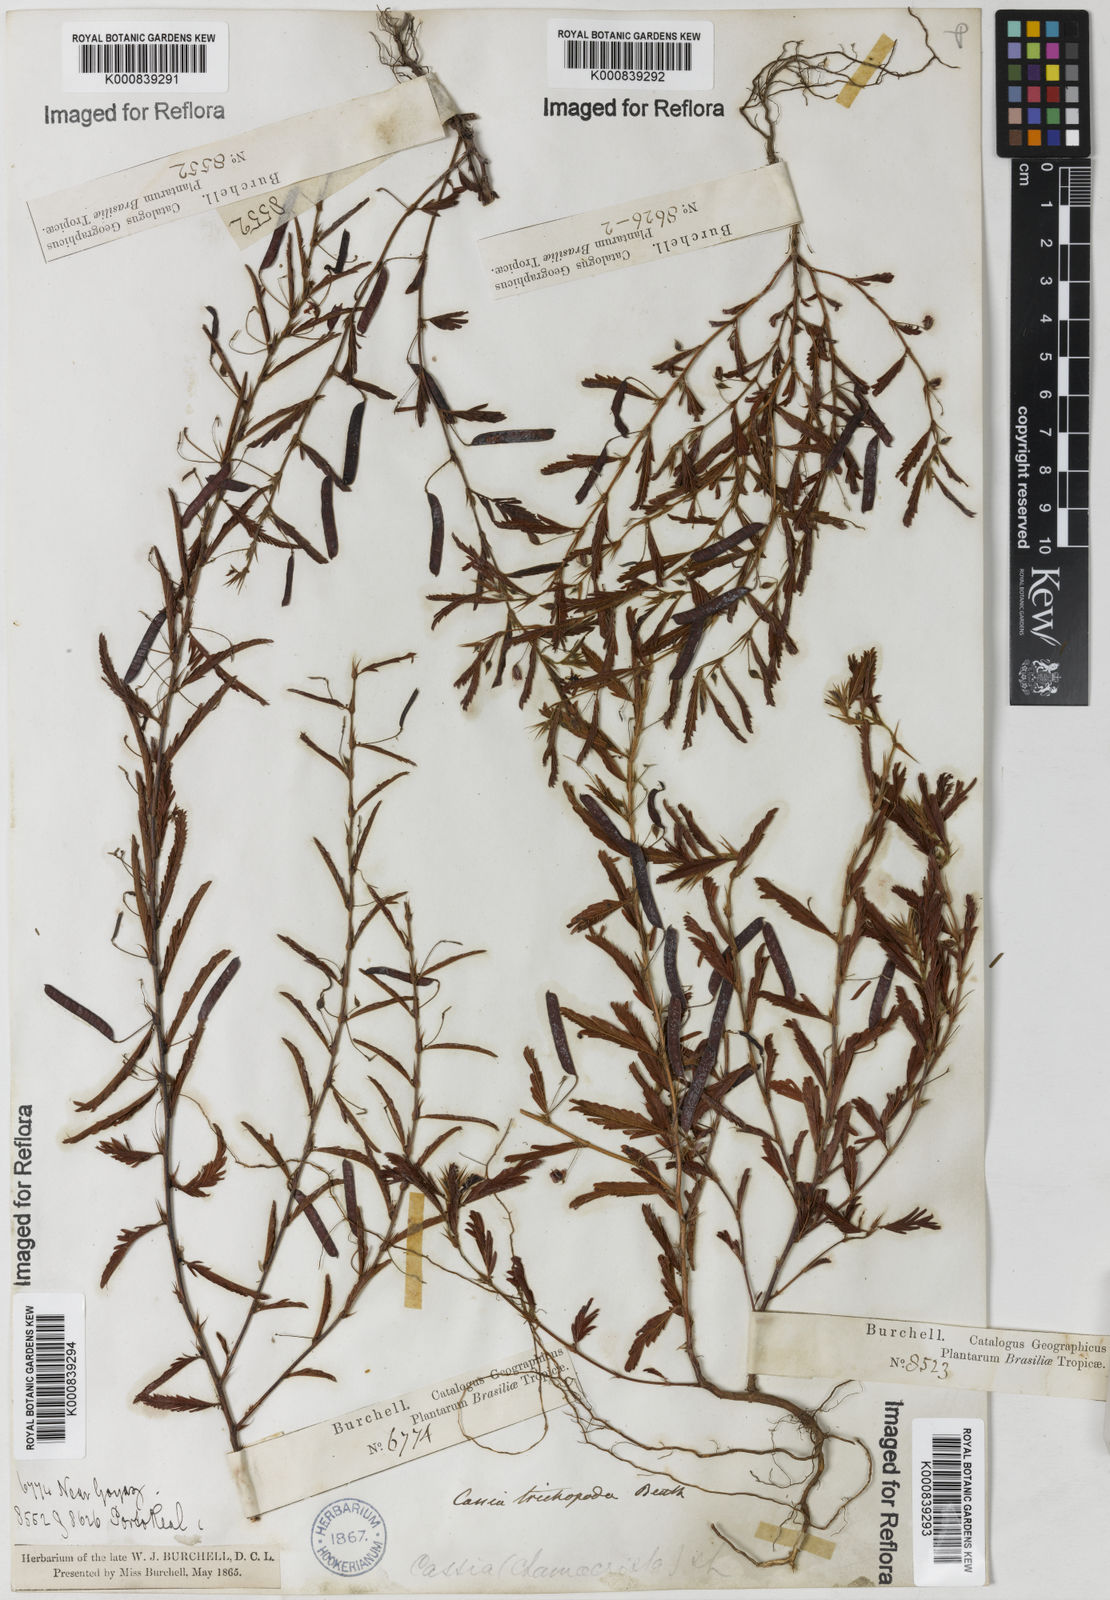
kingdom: Plantae
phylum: Tracheophyta
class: Magnoliopsida
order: Fabales
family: Fabaceae
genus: Chamaecrista
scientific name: Chamaecrista trichopoda
